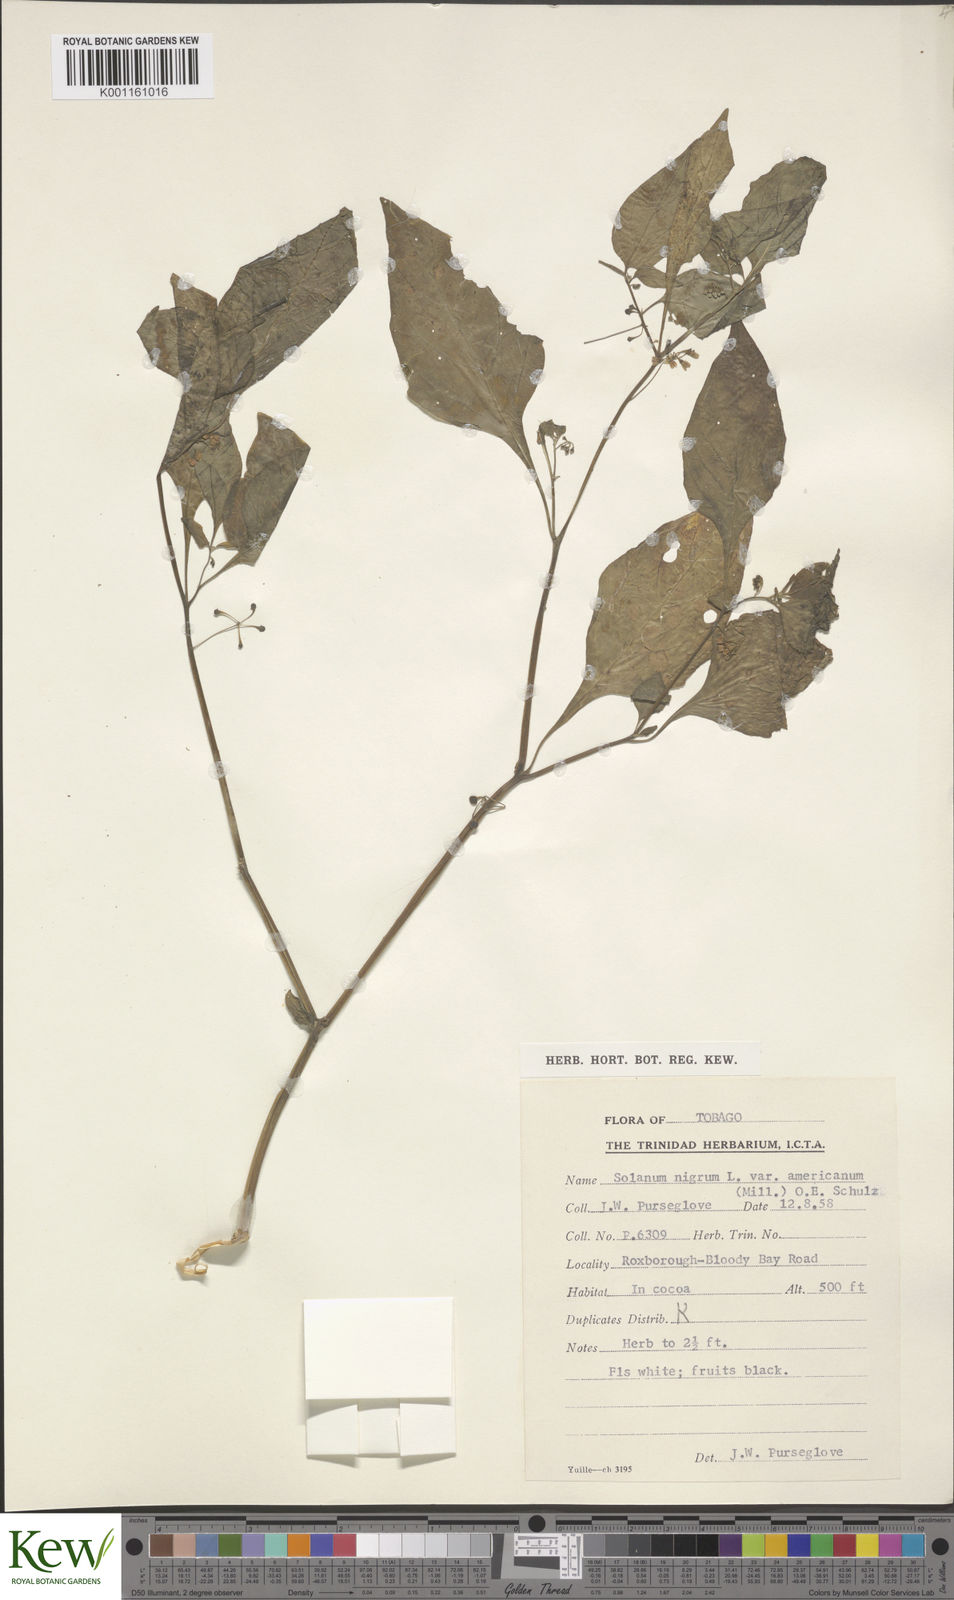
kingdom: Plantae
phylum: Tracheophyta
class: Magnoliopsida
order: Solanales
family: Solanaceae
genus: Solanum
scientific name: Solanum americanum
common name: American black nightshade
